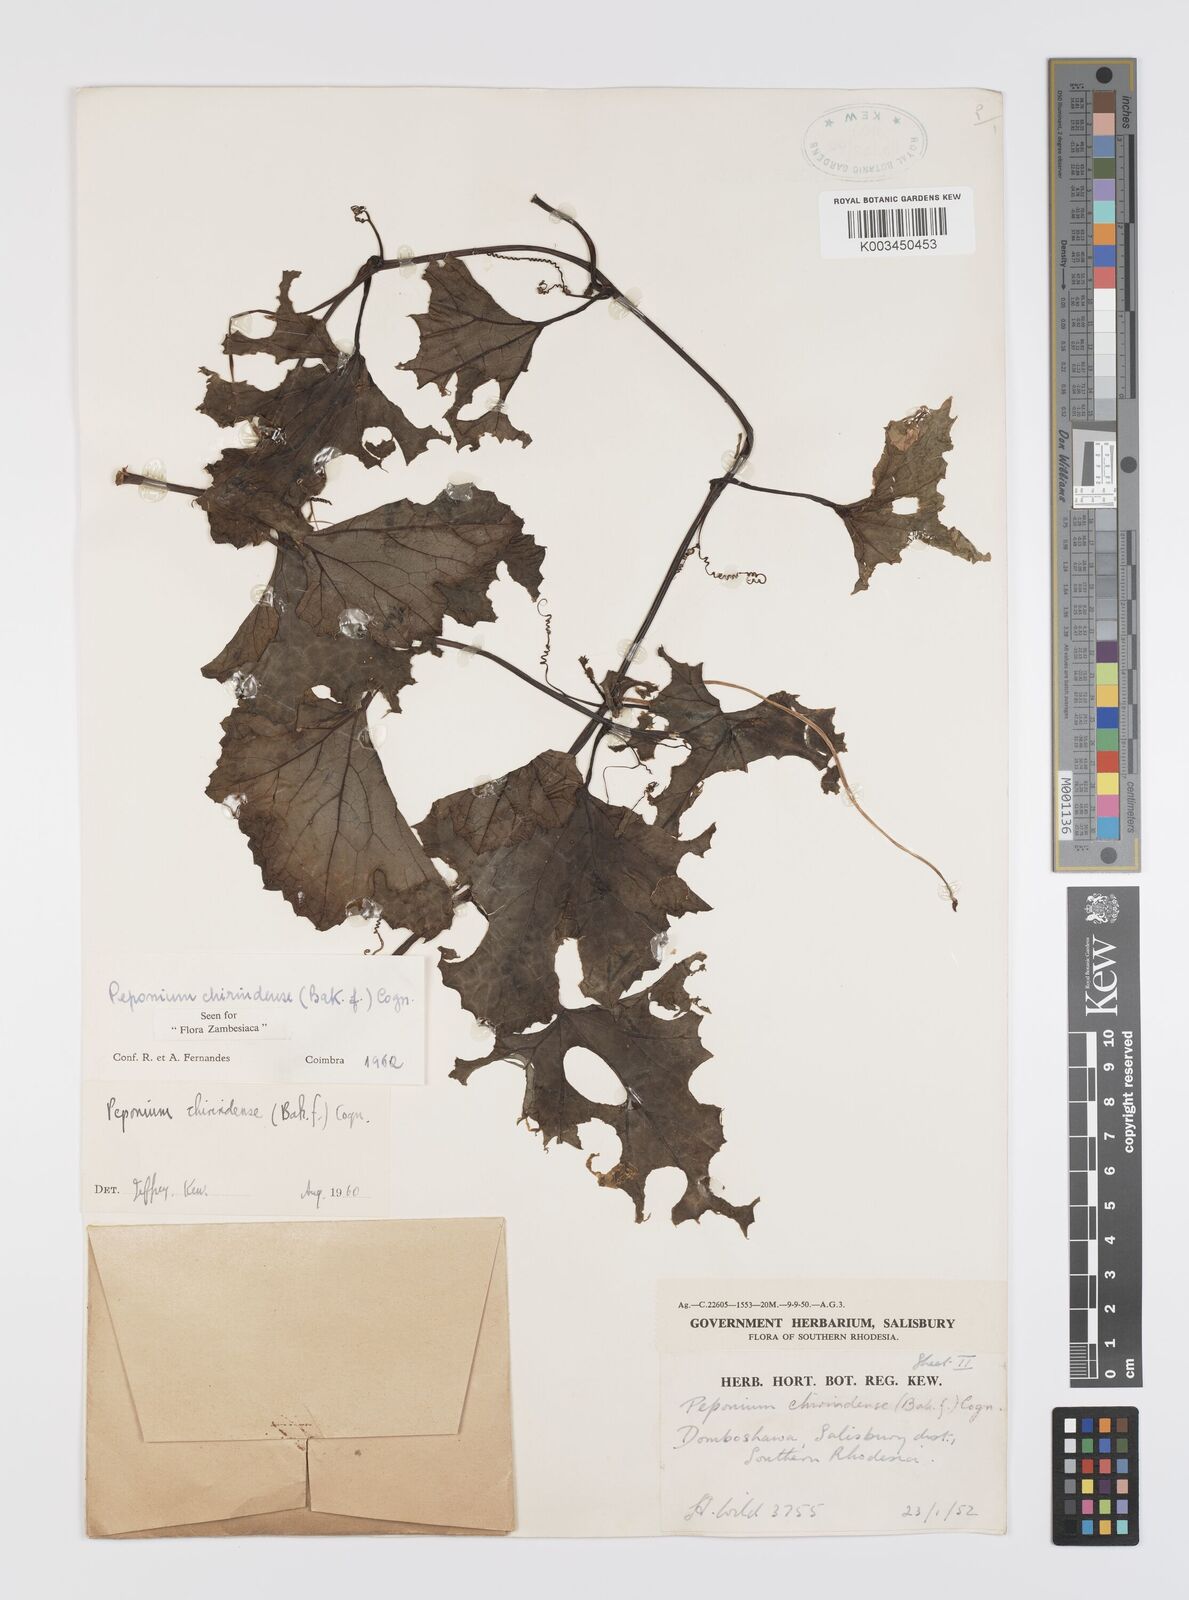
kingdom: Plantae
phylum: Tracheophyta
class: Magnoliopsida
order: Cucurbitales
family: Cucurbitaceae
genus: Peponium
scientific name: Peponium chirindense
